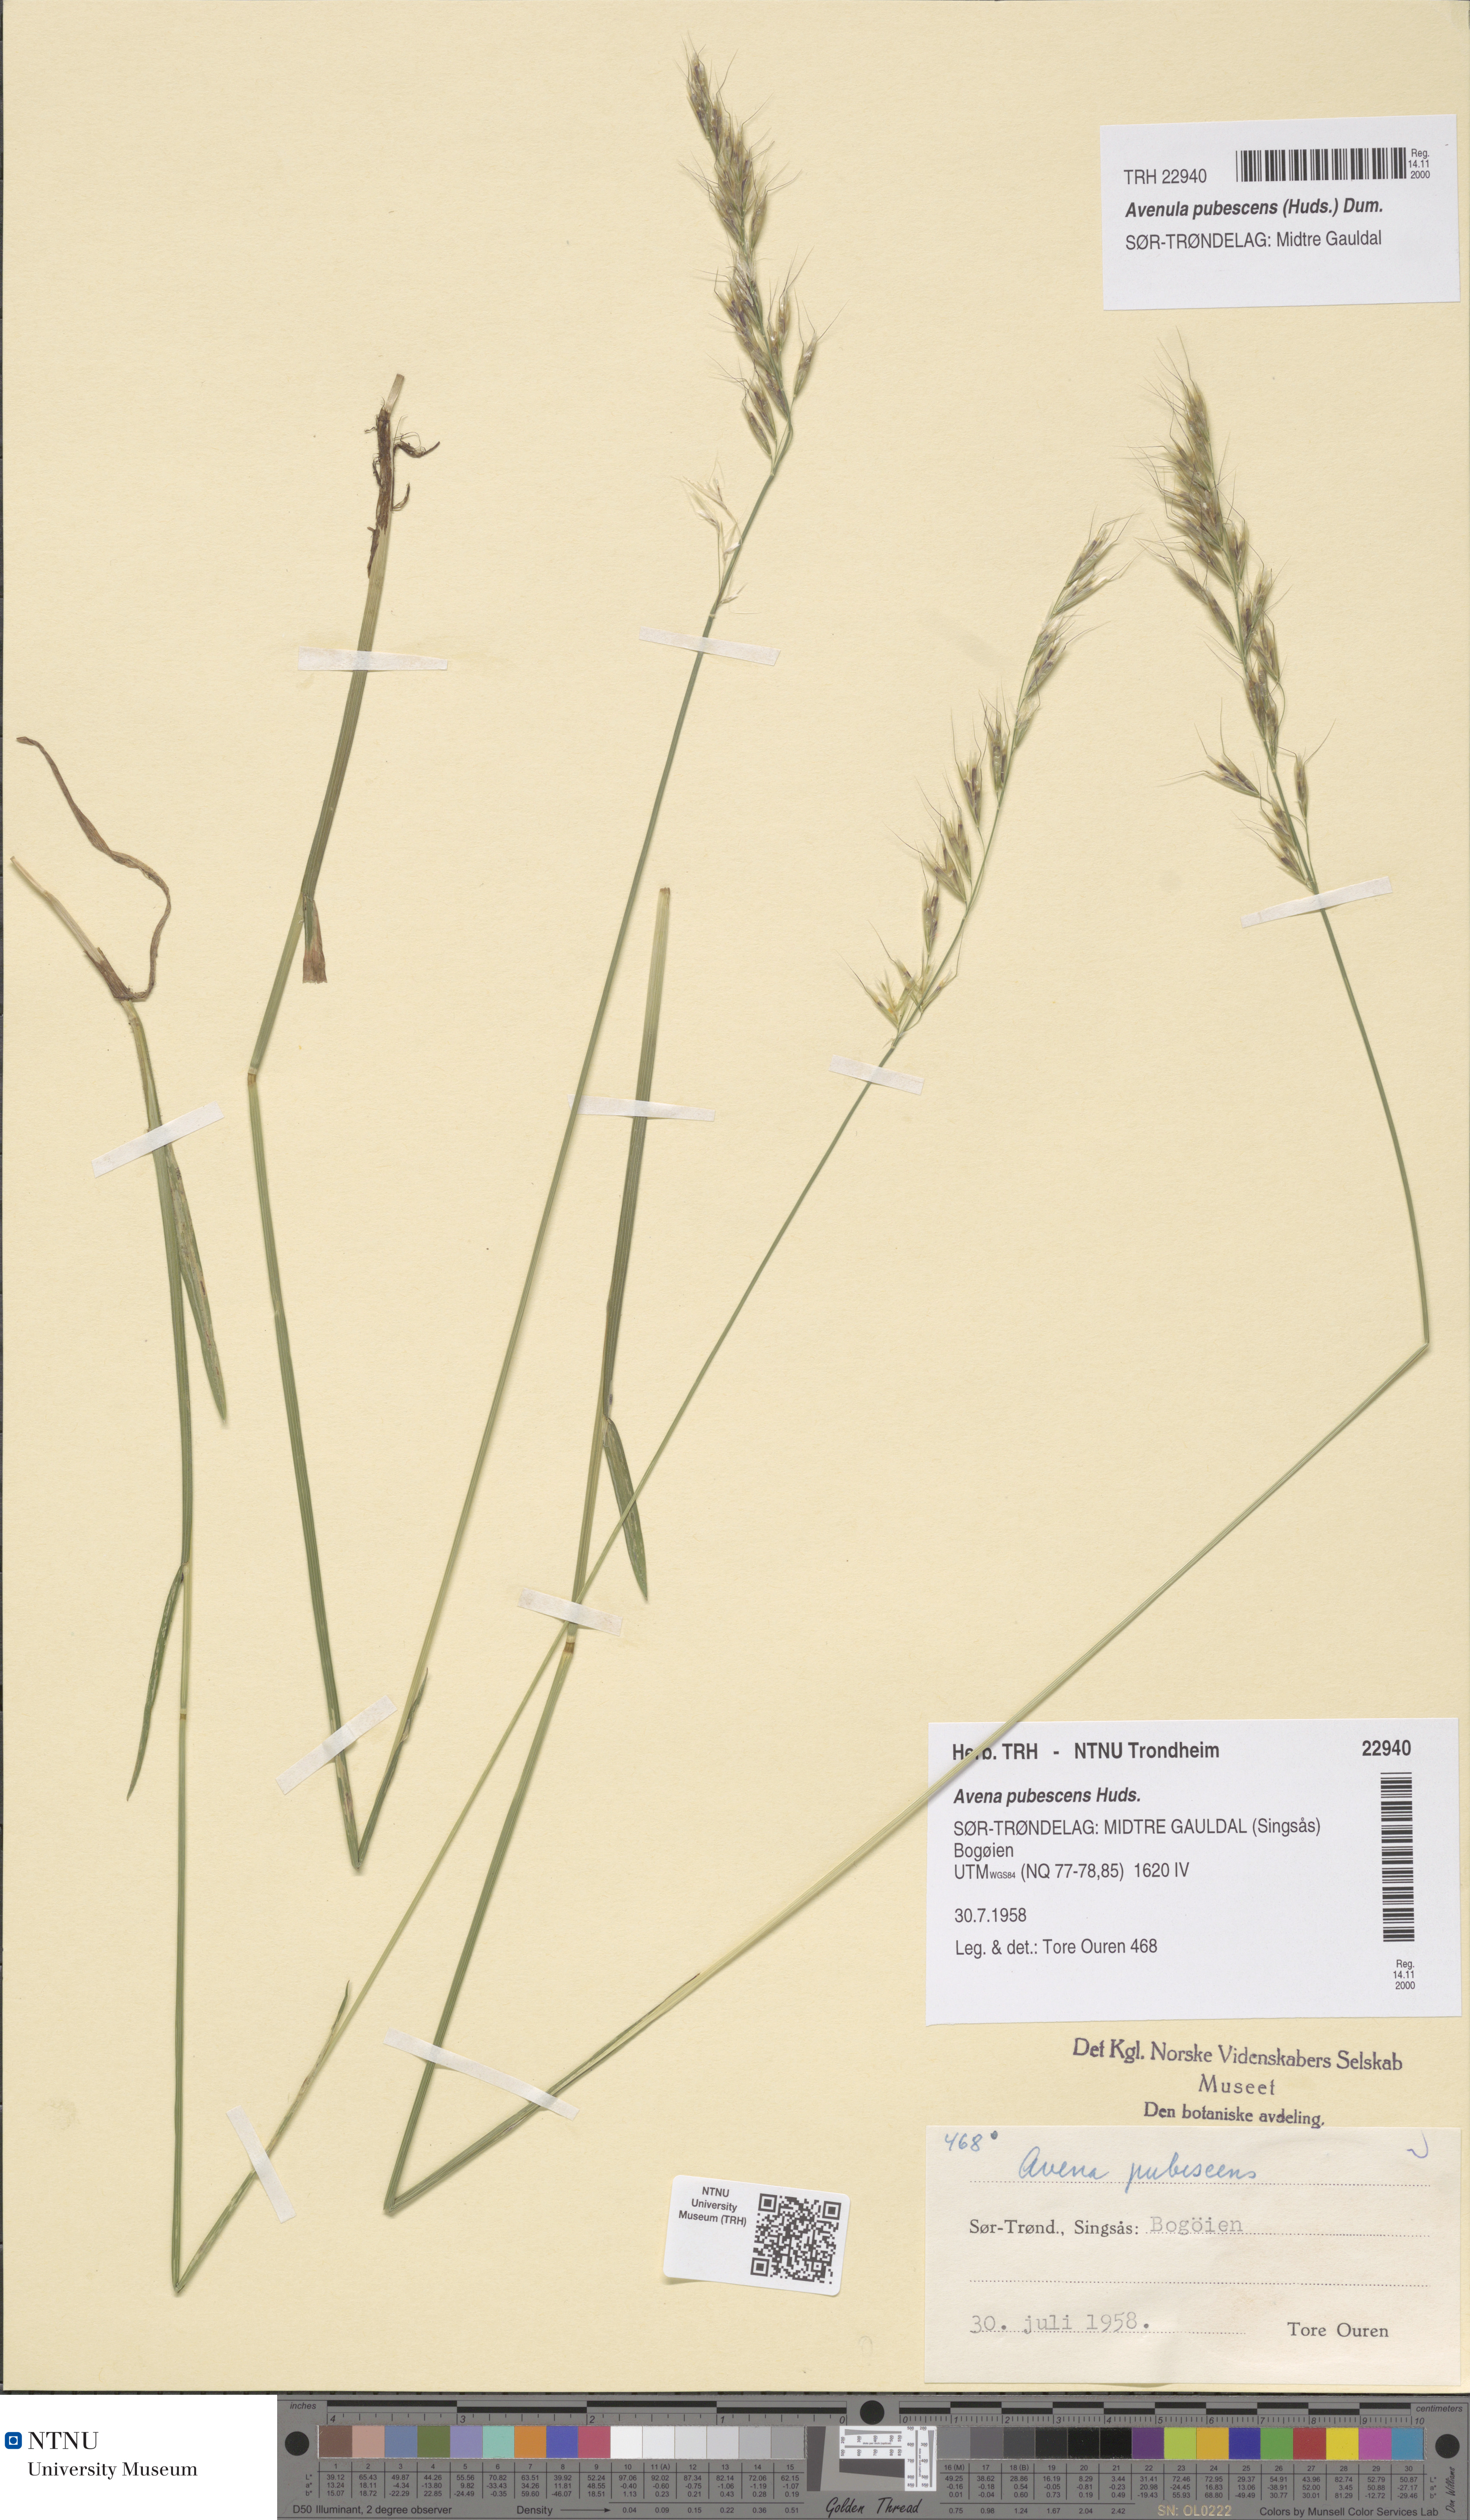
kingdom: Plantae
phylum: Tracheophyta
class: Liliopsida
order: Poales
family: Poaceae
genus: Avenula
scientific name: Avenula pubescens
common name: Downy alpine oatgrass
